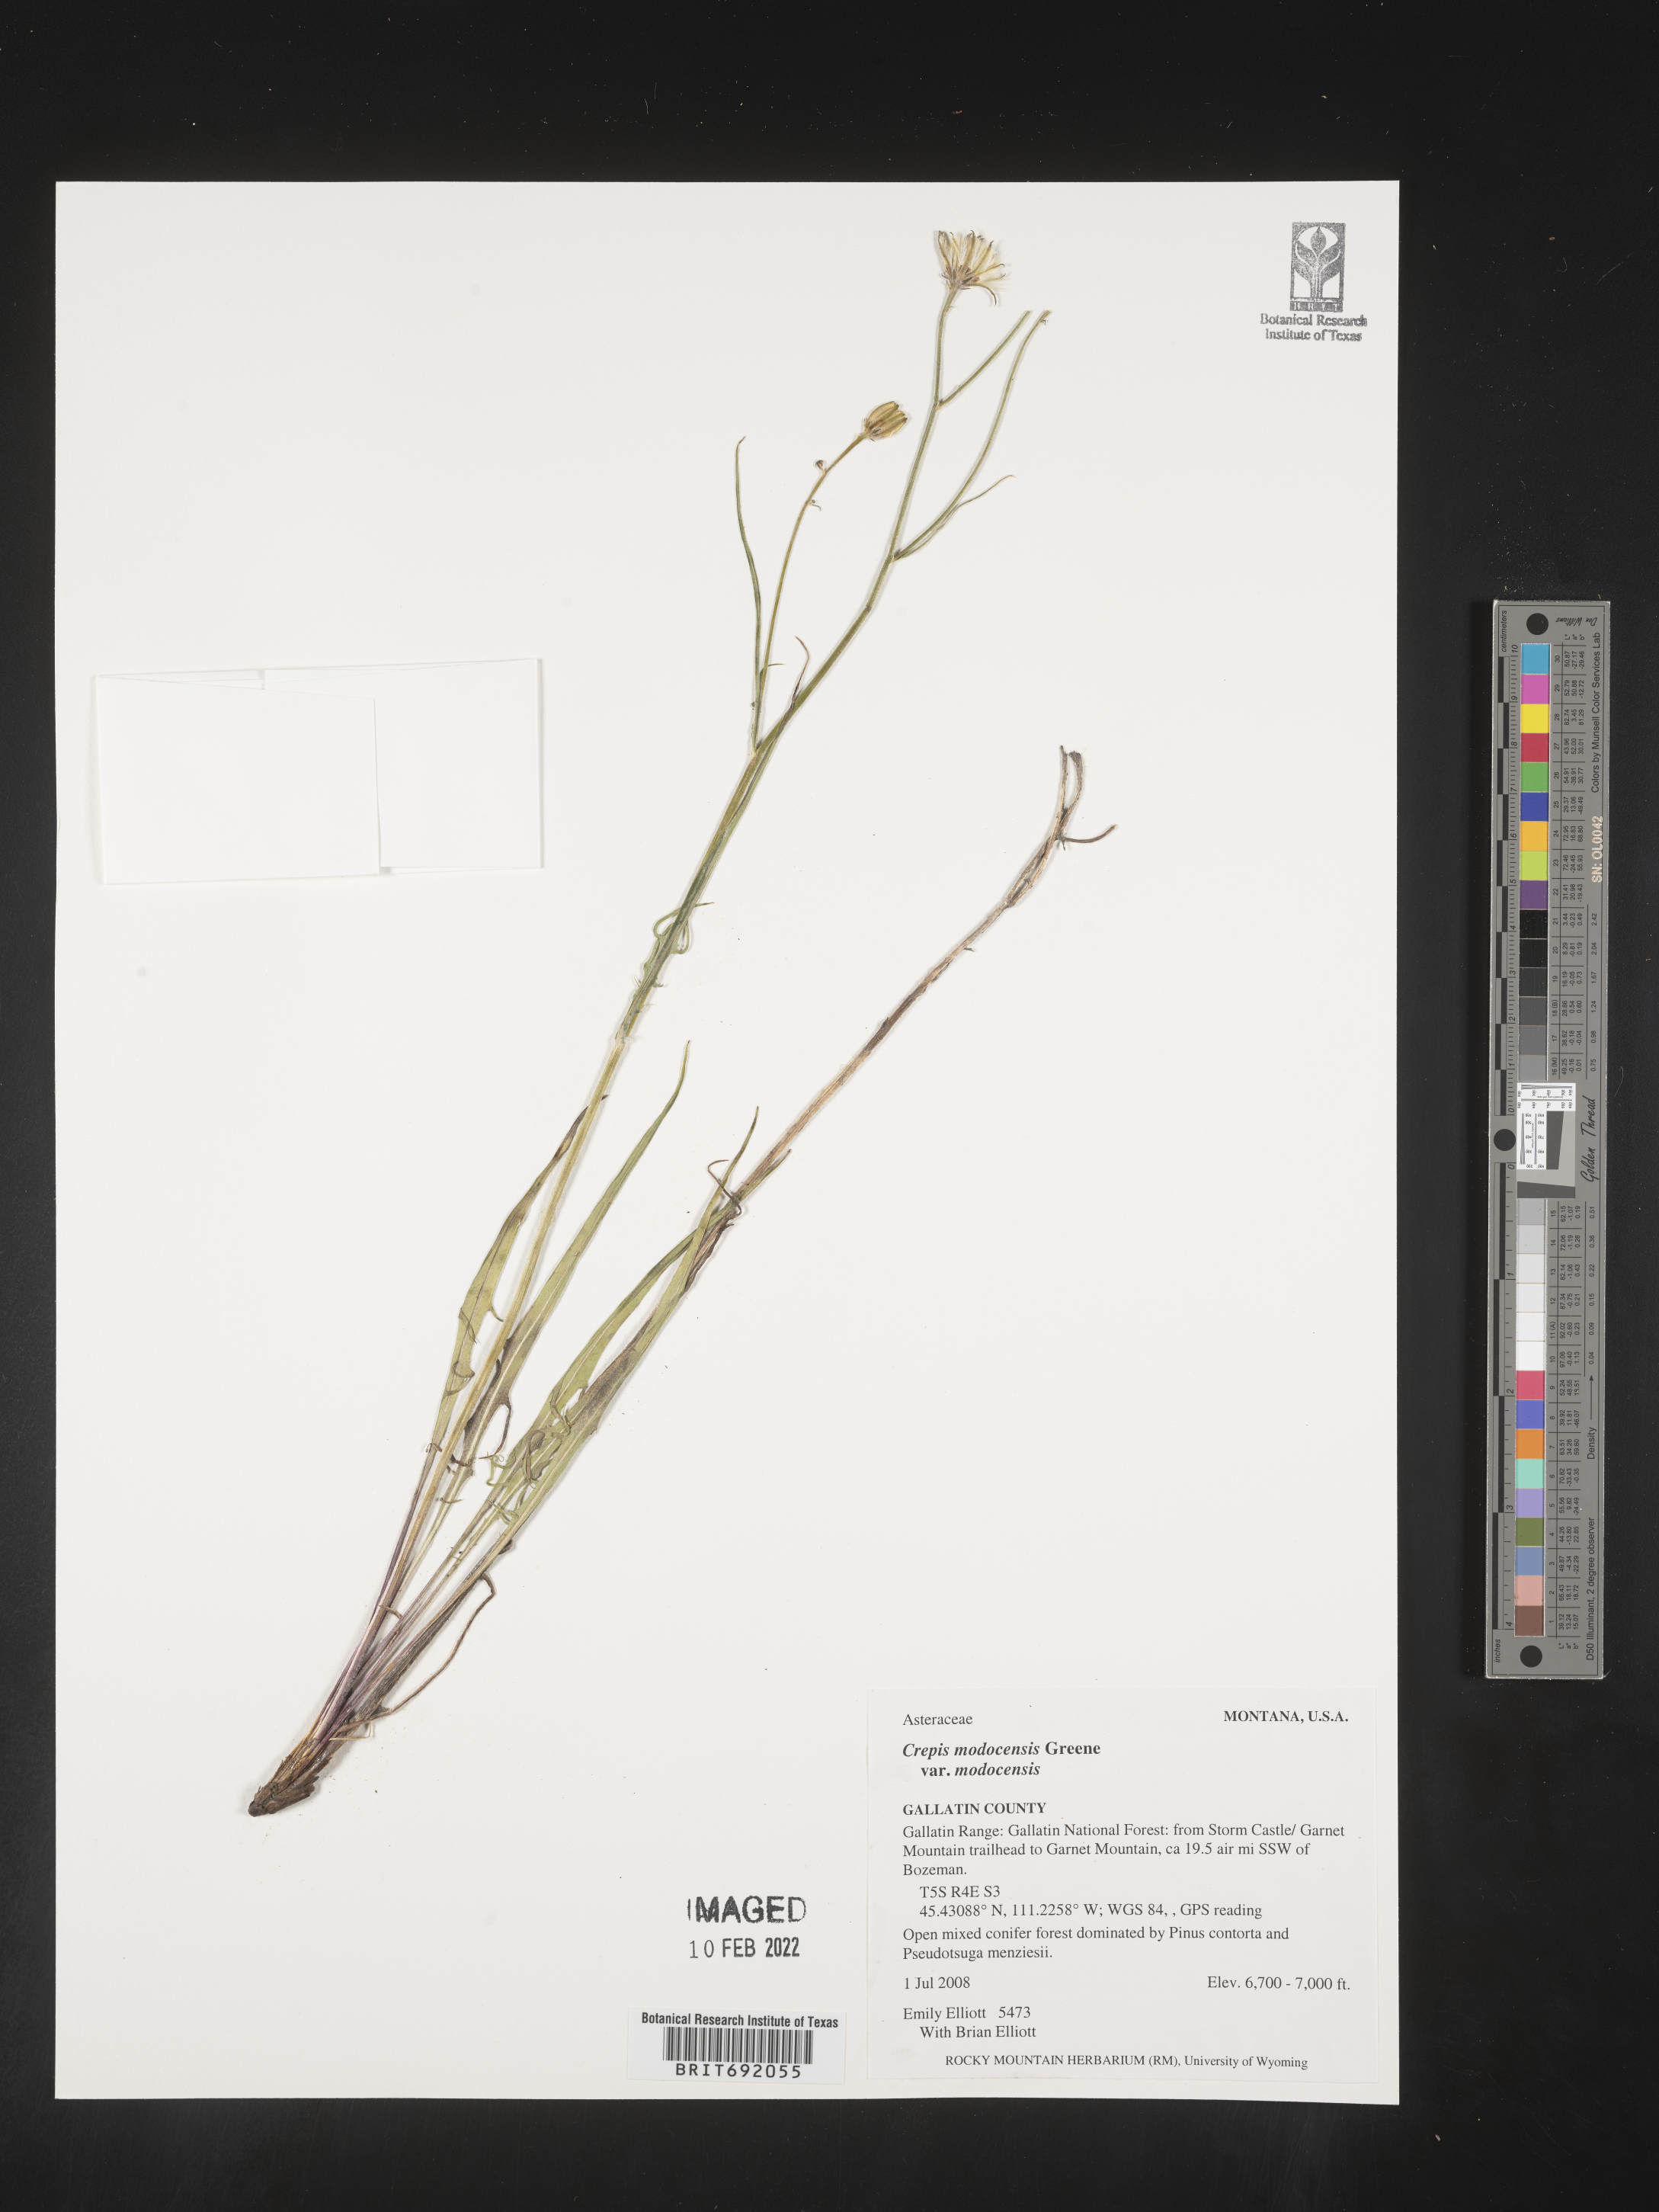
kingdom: Plantae
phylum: Tracheophyta
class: Magnoliopsida
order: Asterales
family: Asteraceae
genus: Crepis
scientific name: Crepis
